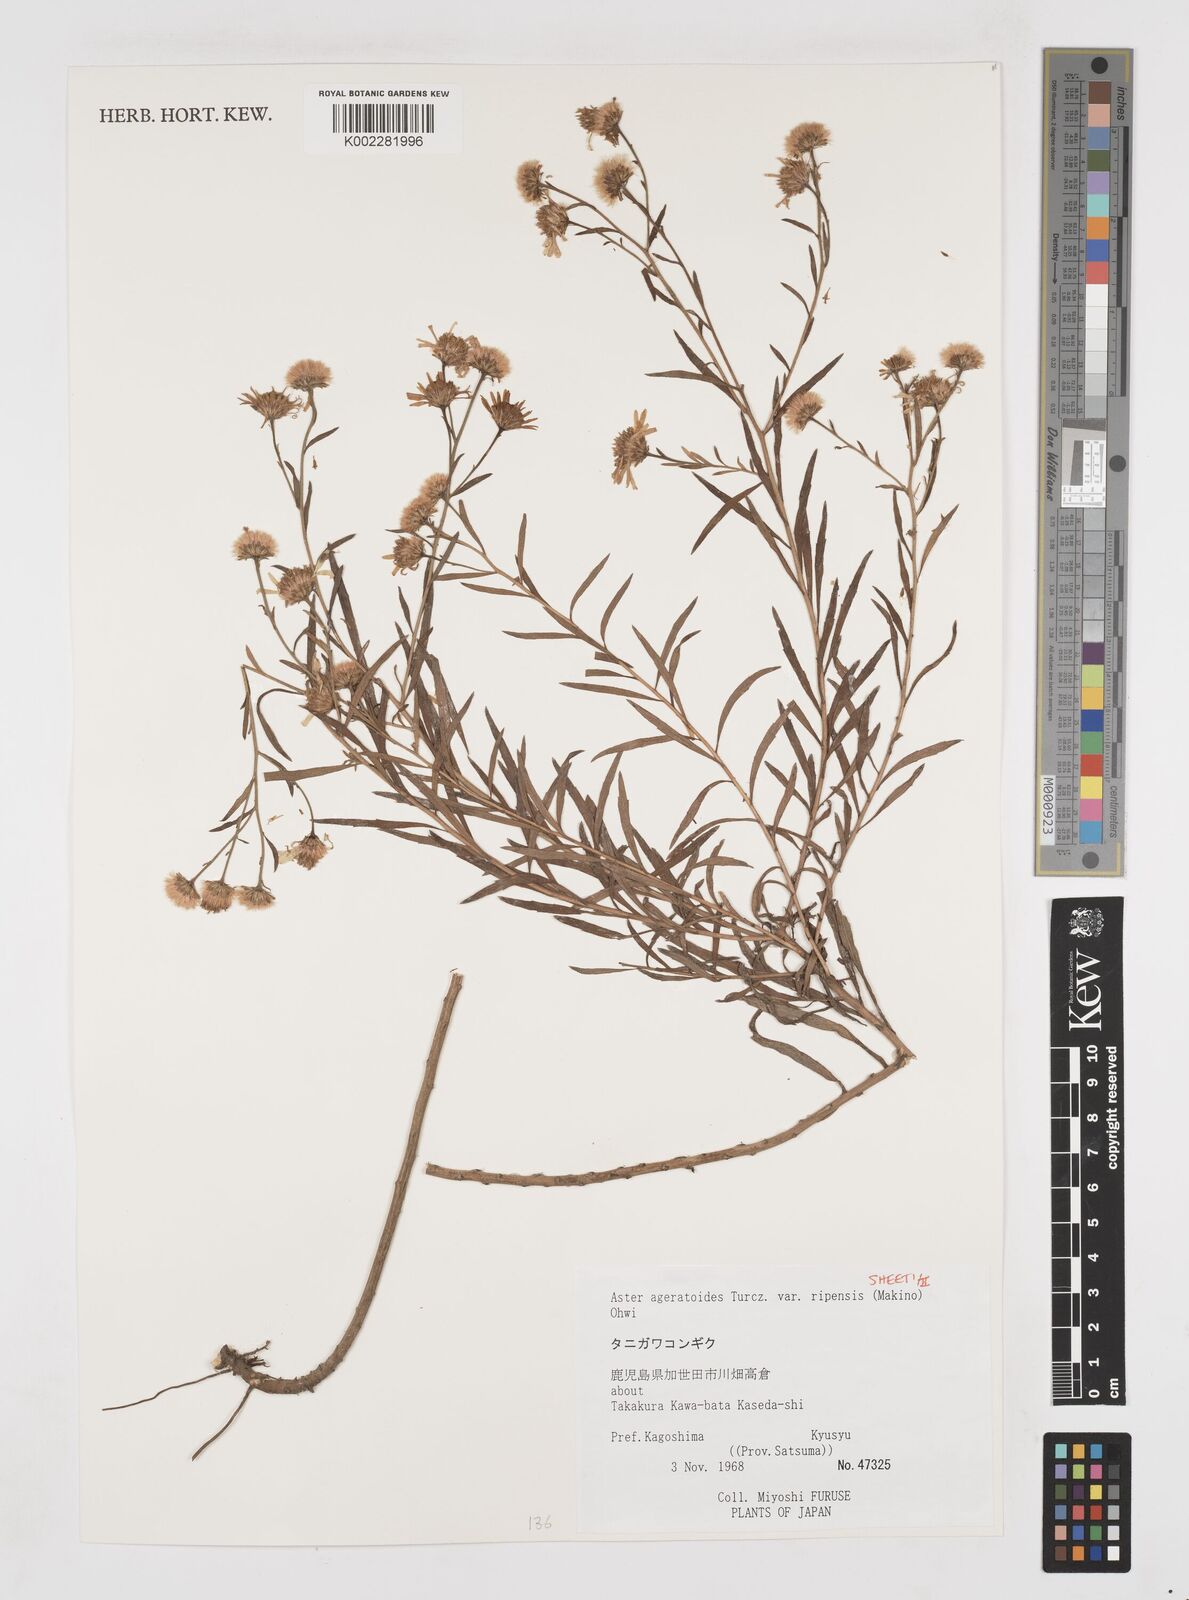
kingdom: Plantae
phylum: Tracheophyta
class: Magnoliopsida
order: Asterales
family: Asteraceae
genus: Aster
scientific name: Aster trinervius
